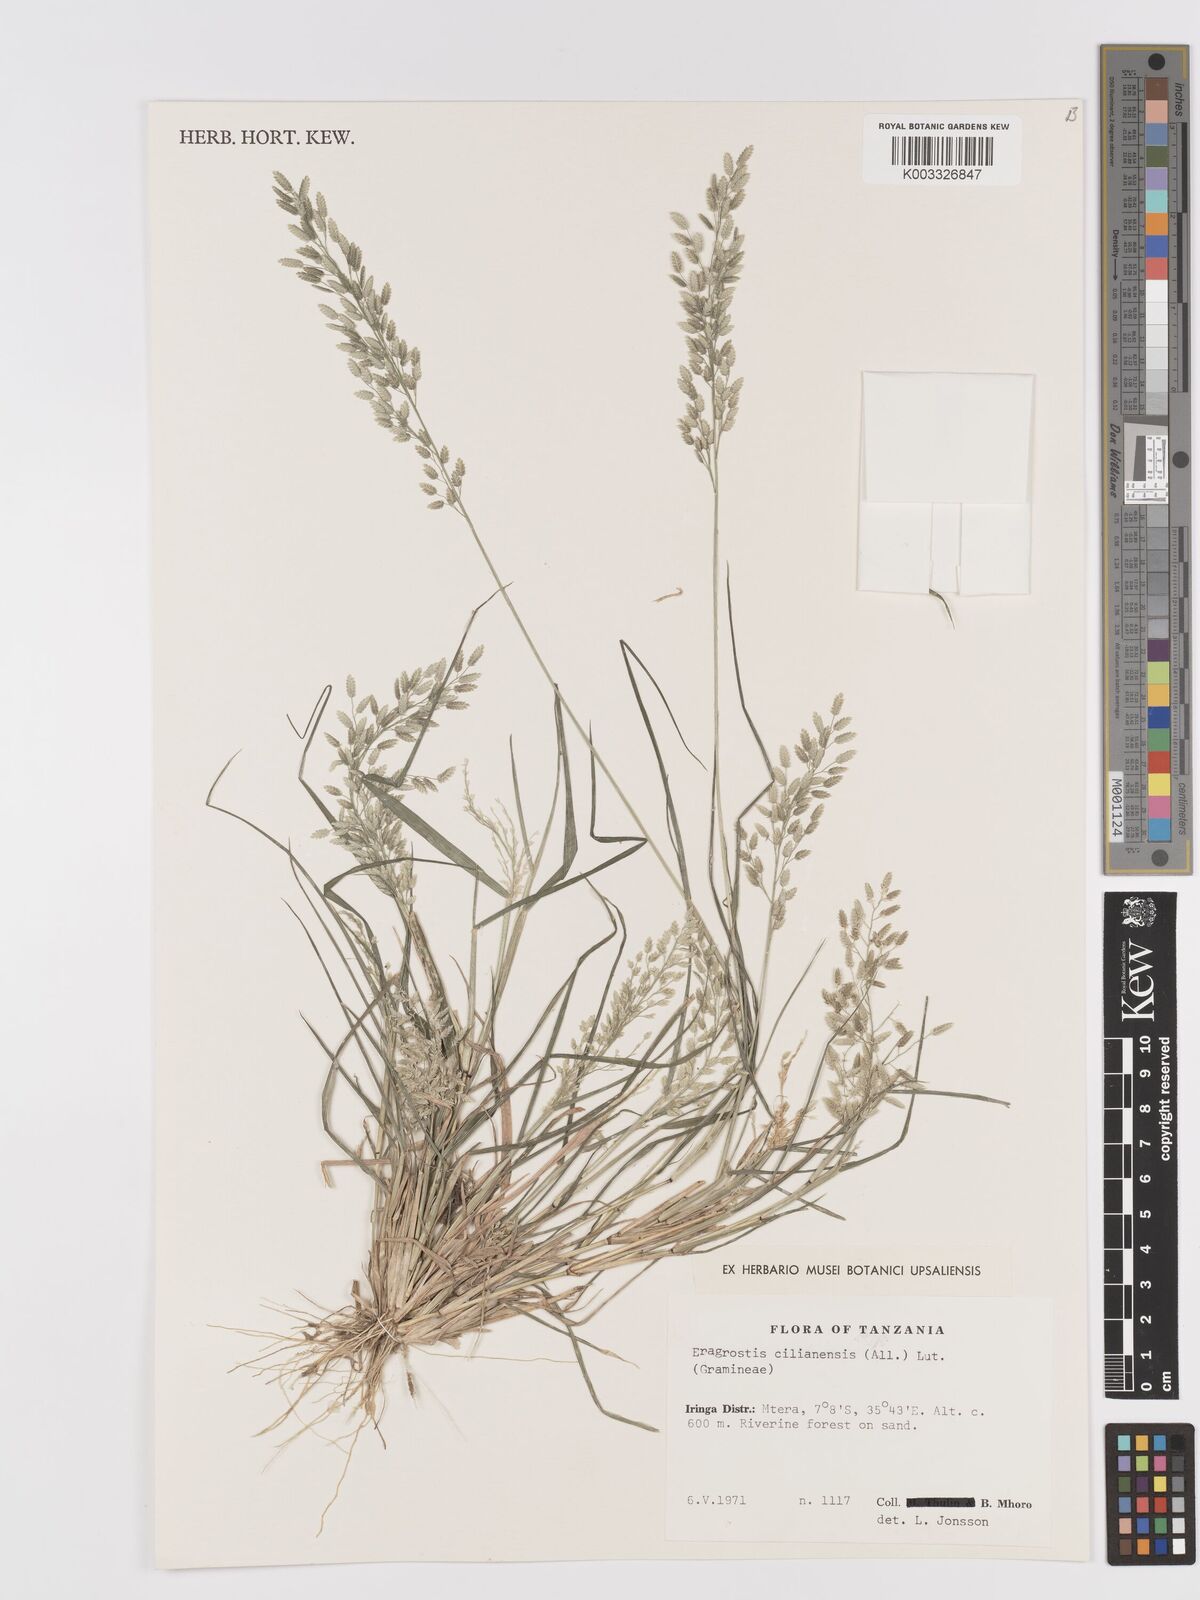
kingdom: Plantae
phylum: Tracheophyta
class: Liliopsida
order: Poales
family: Poaceae
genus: Eragrostis
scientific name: Eragrostis cilianensis
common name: Stinkgrass
